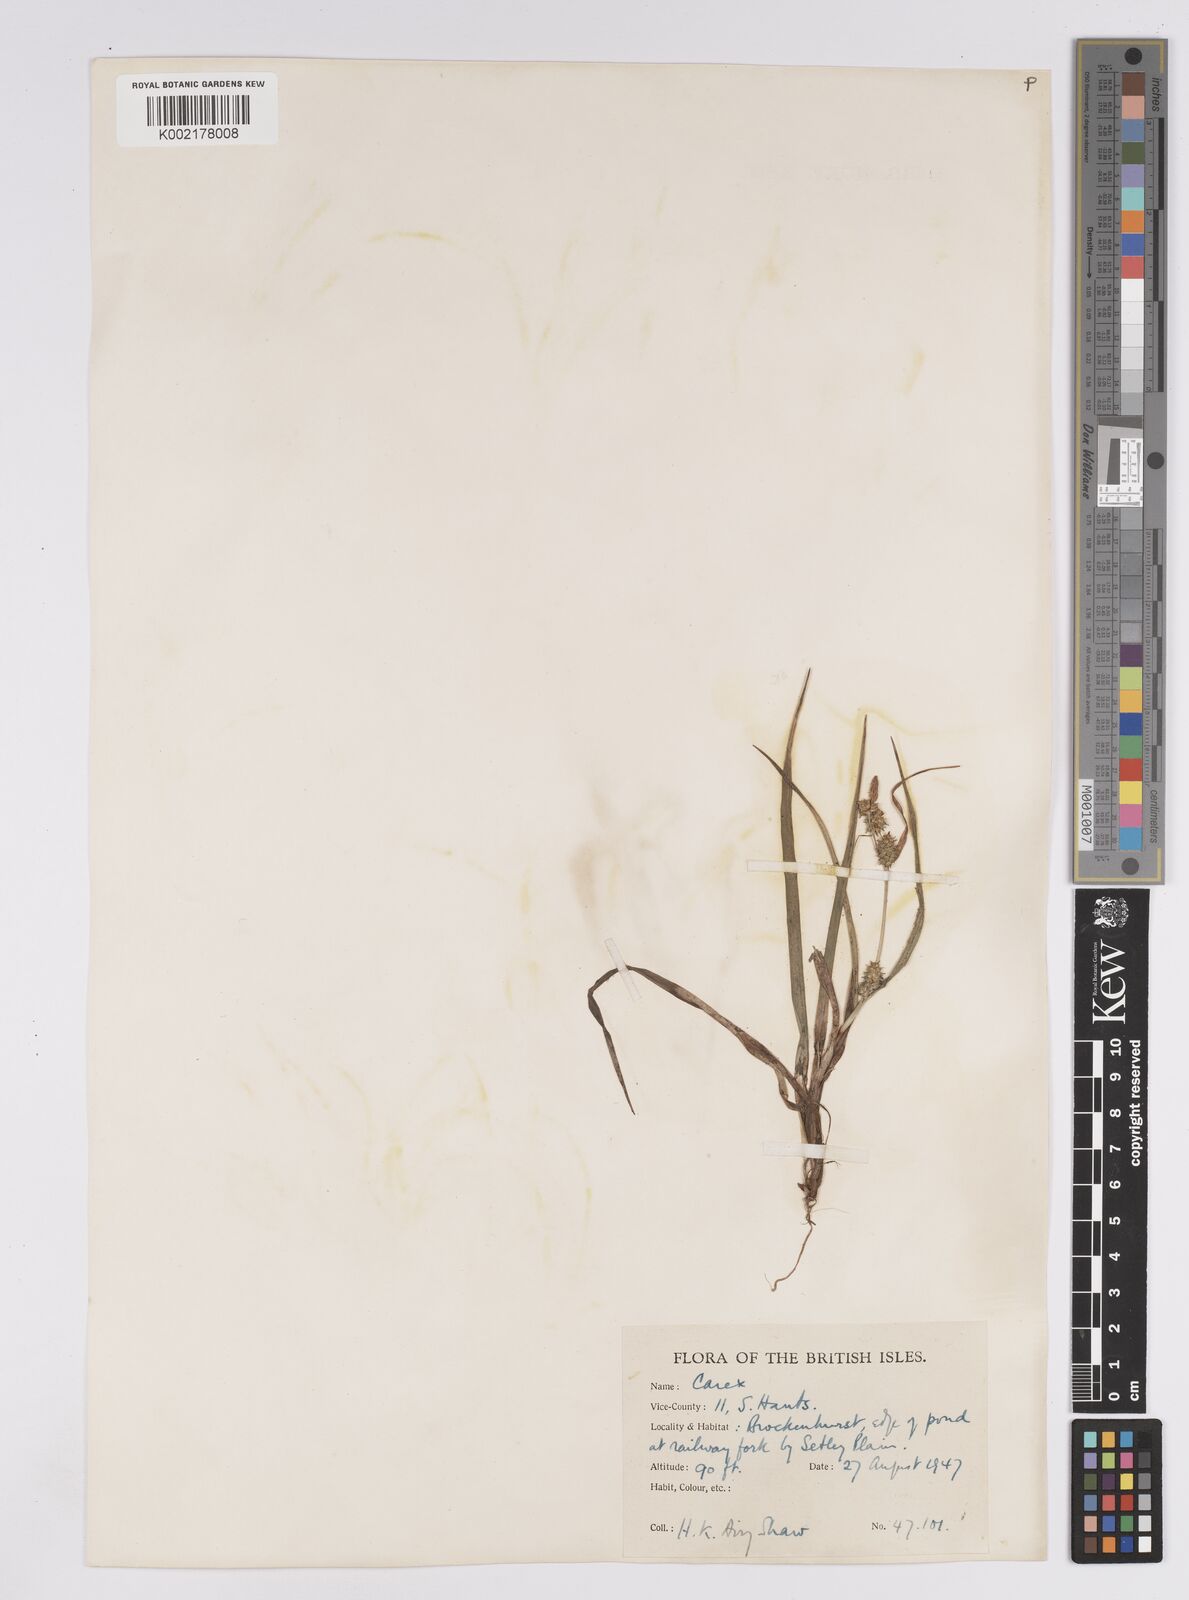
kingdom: Plantae
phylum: Tracheophyta
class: Liliopsida
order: Poales
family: Cyperaceae
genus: Carex
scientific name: Carex demissa
